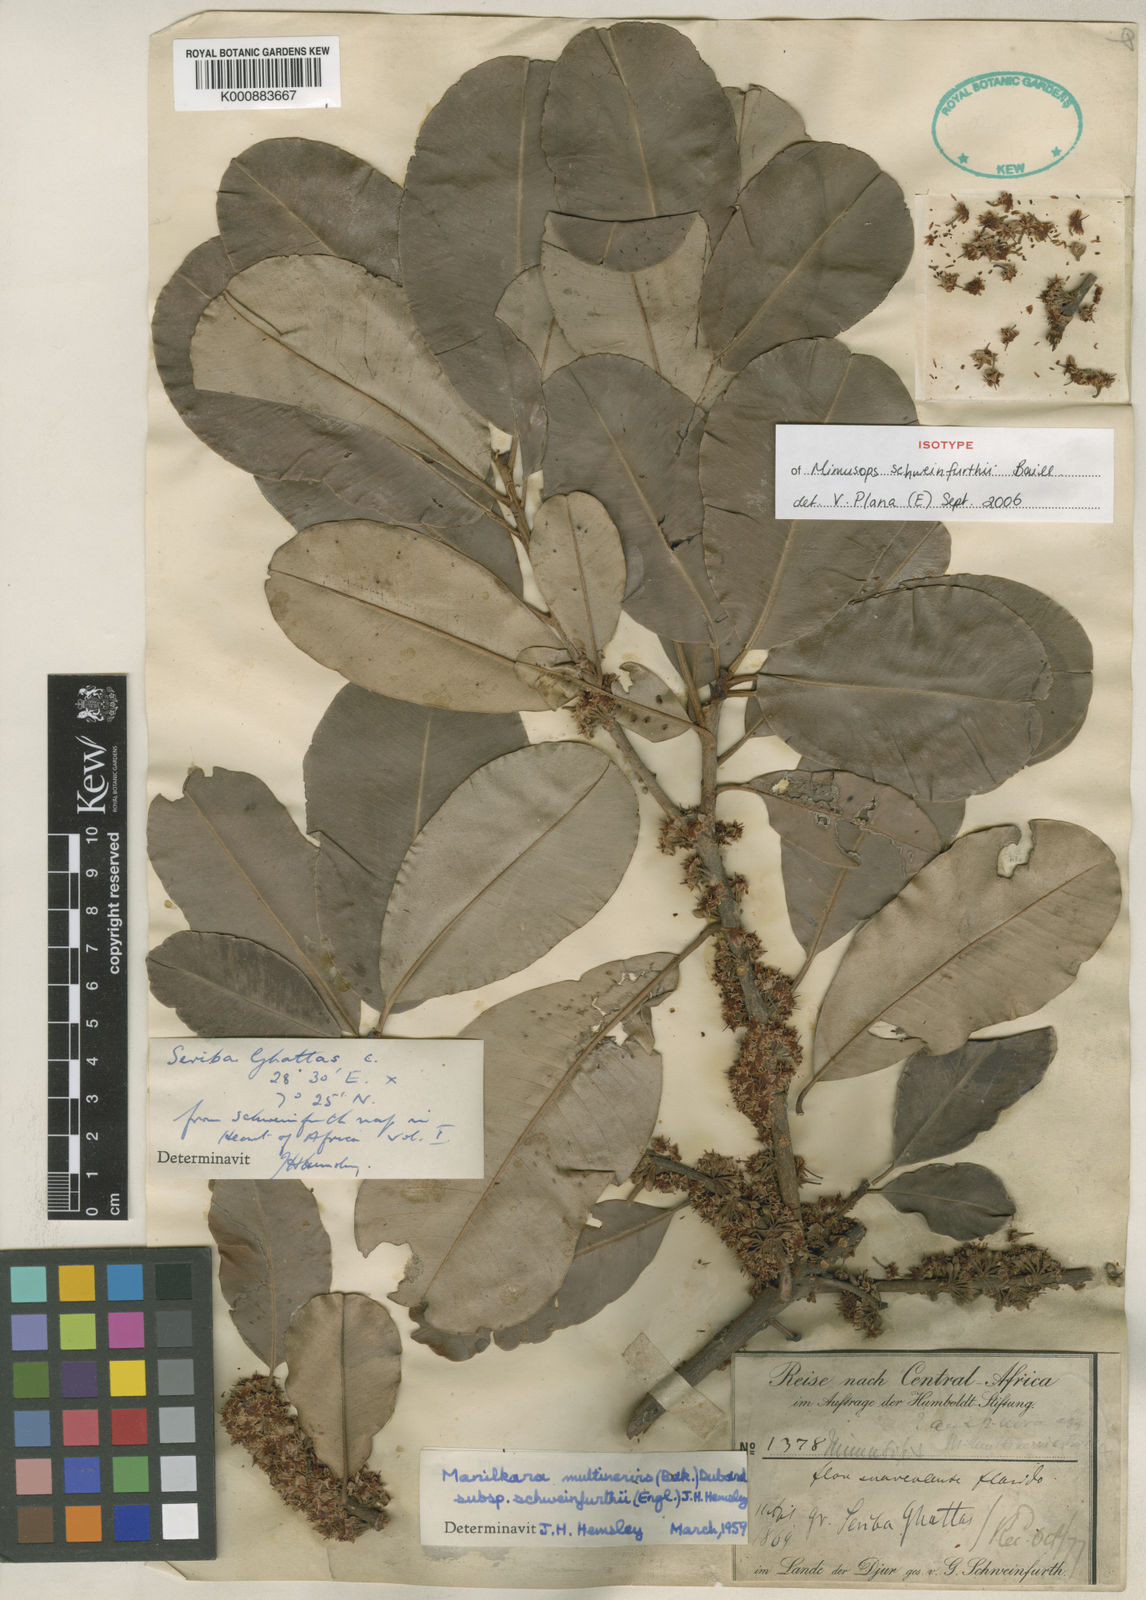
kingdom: Plantae
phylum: Tracheophyta
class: Magnoliopsida
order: Ericales
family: Sapotaceae
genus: Manilkara
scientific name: Manilkara obovata
